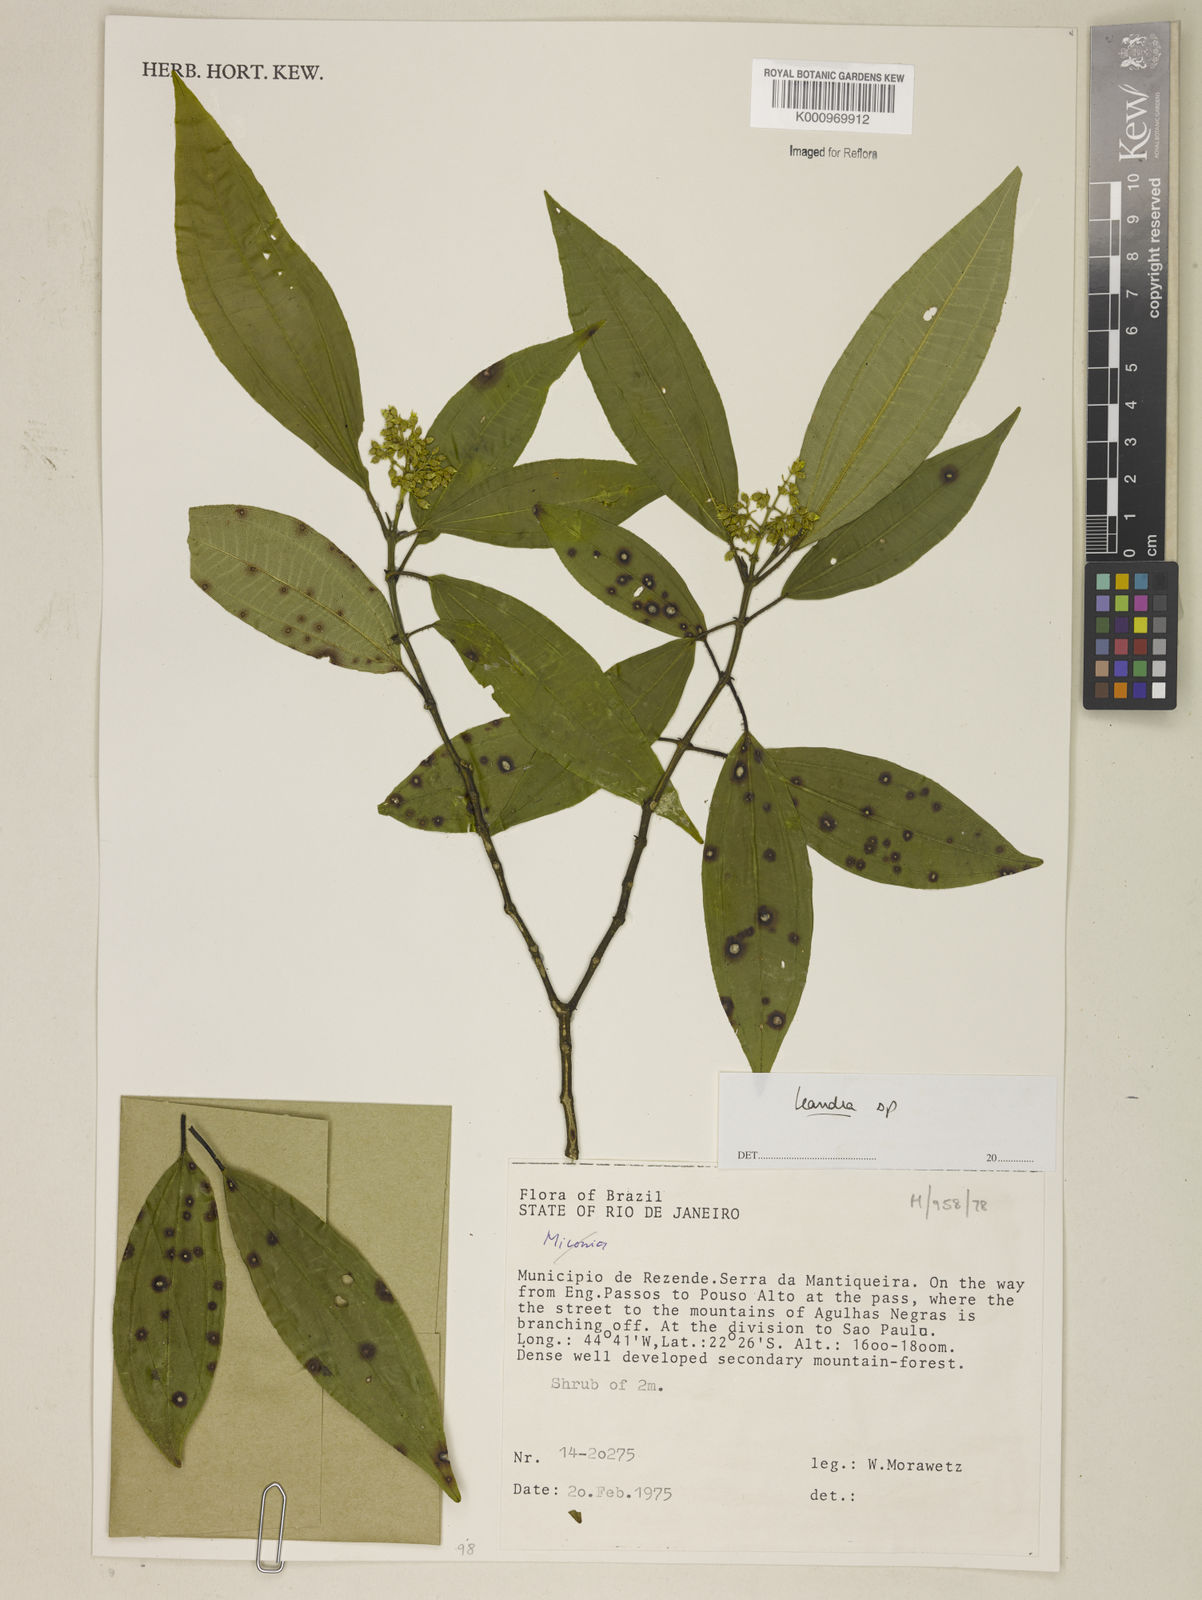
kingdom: Plantae
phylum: Tracheophyta
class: Magnoliopsida
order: Myrtales
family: Melastomataceae
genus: Miconia
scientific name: Miconia
